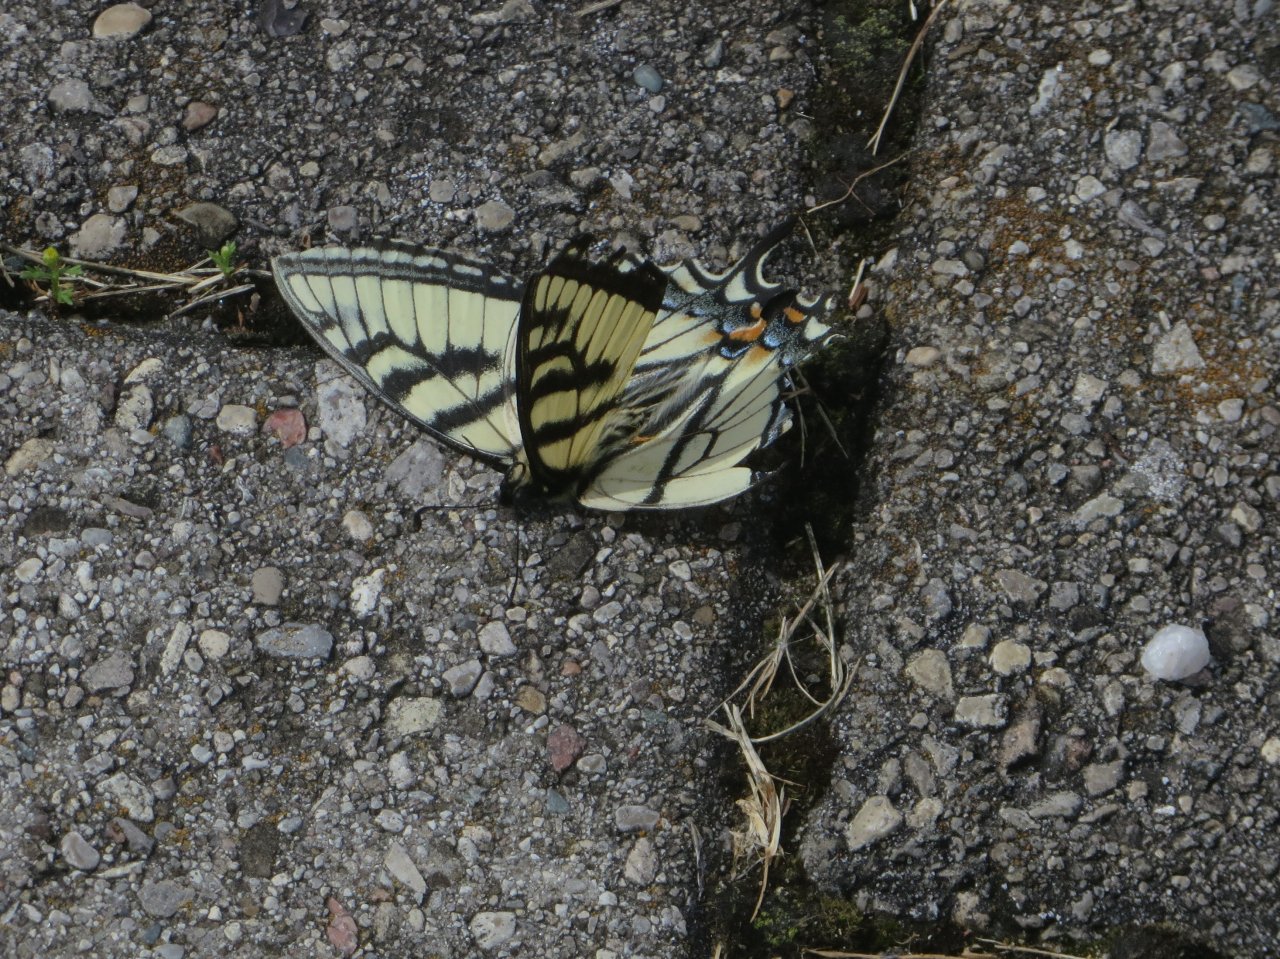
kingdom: Animalia
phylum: Arthropoda
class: Insecta
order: Lepidoptera
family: Papilionidae
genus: Pterourus
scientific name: Pterourus canadensis
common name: Canadian Tiger Swallowtail
